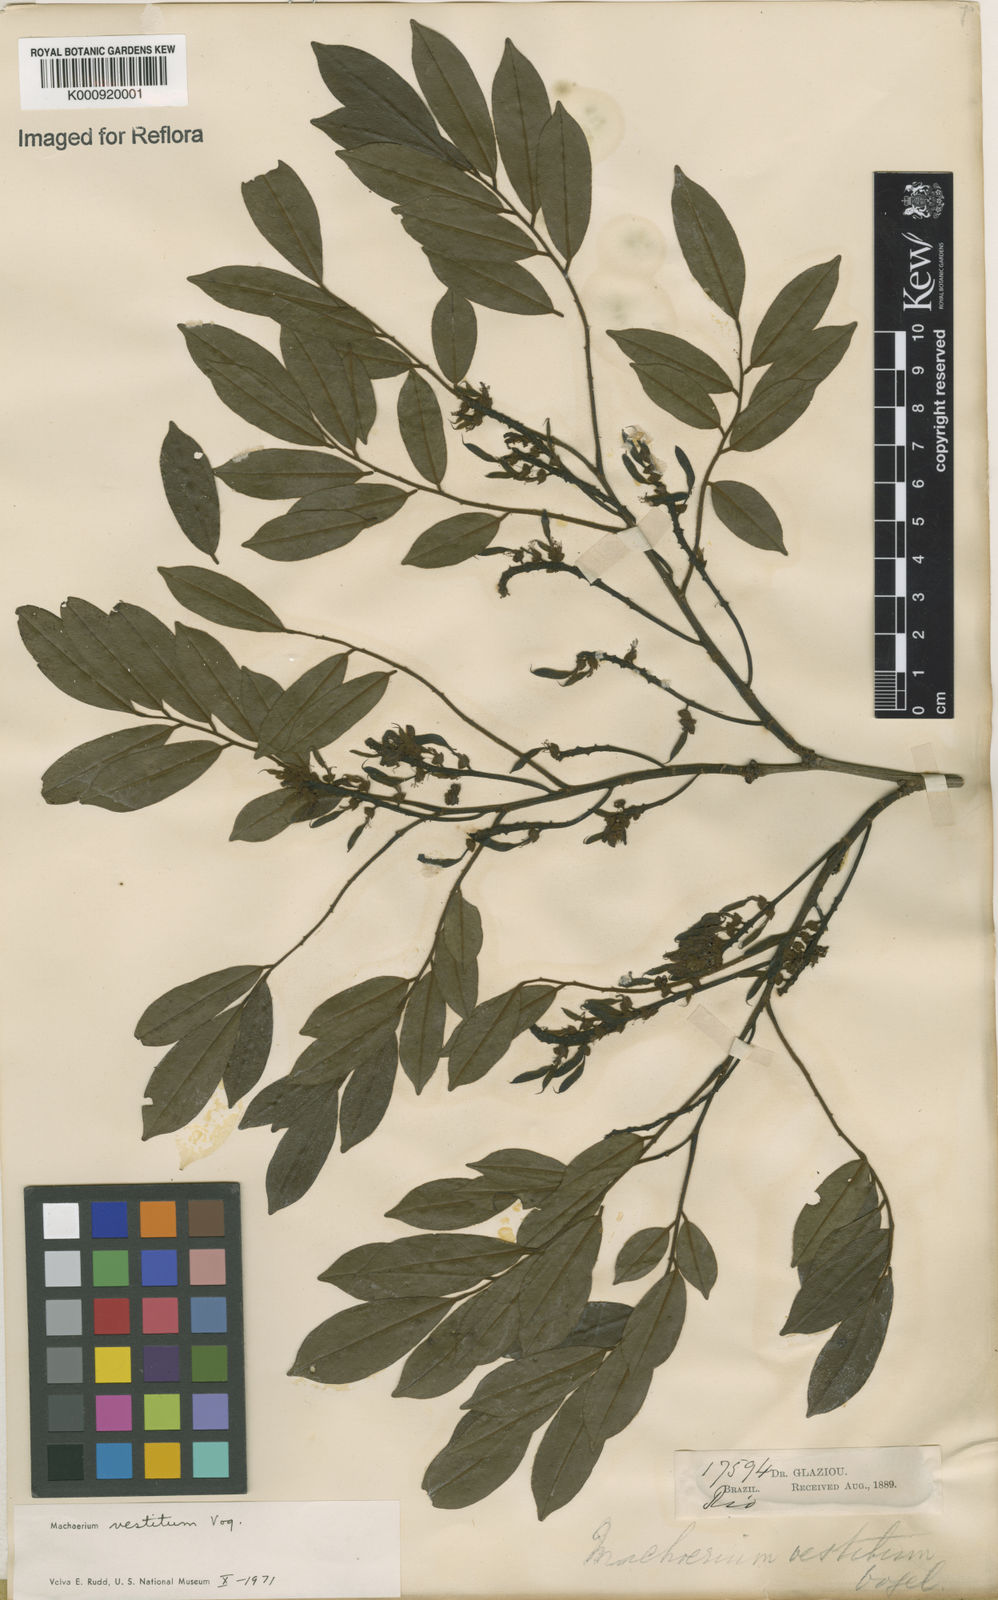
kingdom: Plantae
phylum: Tracheophyta
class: Magnoliopsida
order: Fabales
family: Fabaceae
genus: Machaerium
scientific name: Machaerium brasiliense
